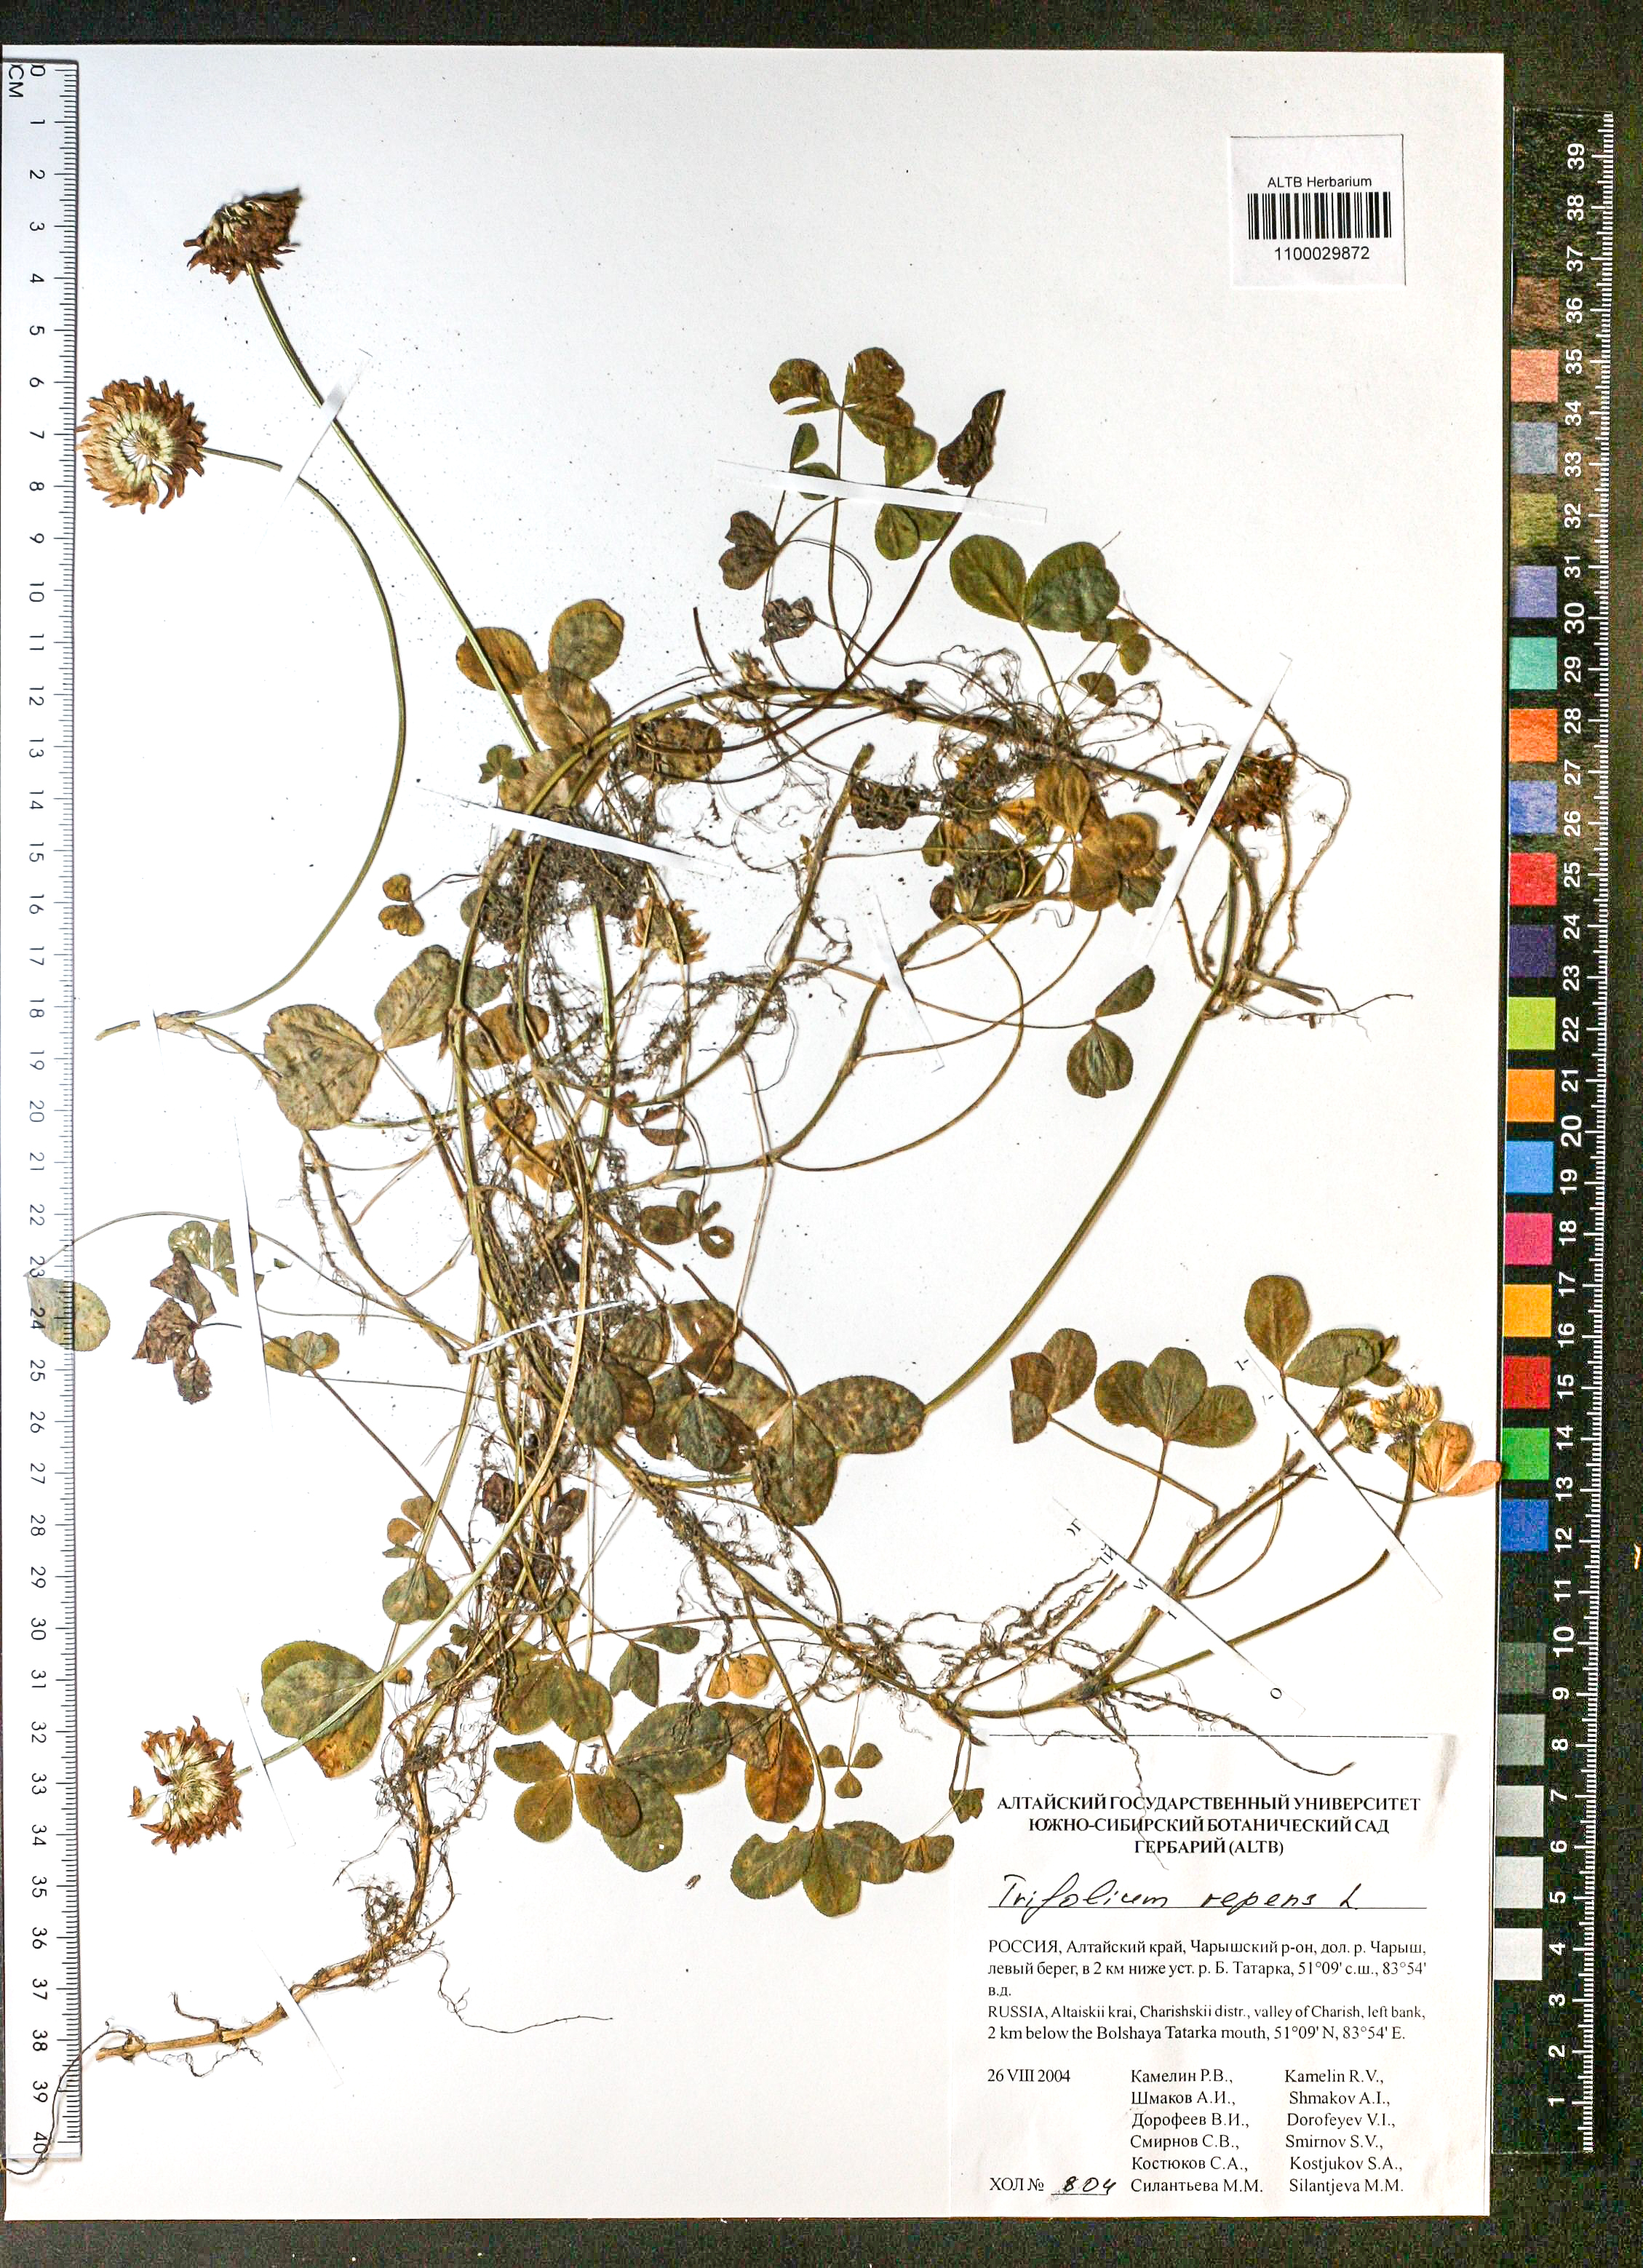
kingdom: Plantae
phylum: Tracheophyta
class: Magnoliopsida
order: Fabales
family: Fabaceae
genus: Trifolium
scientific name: Trifolium repens
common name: White clover
